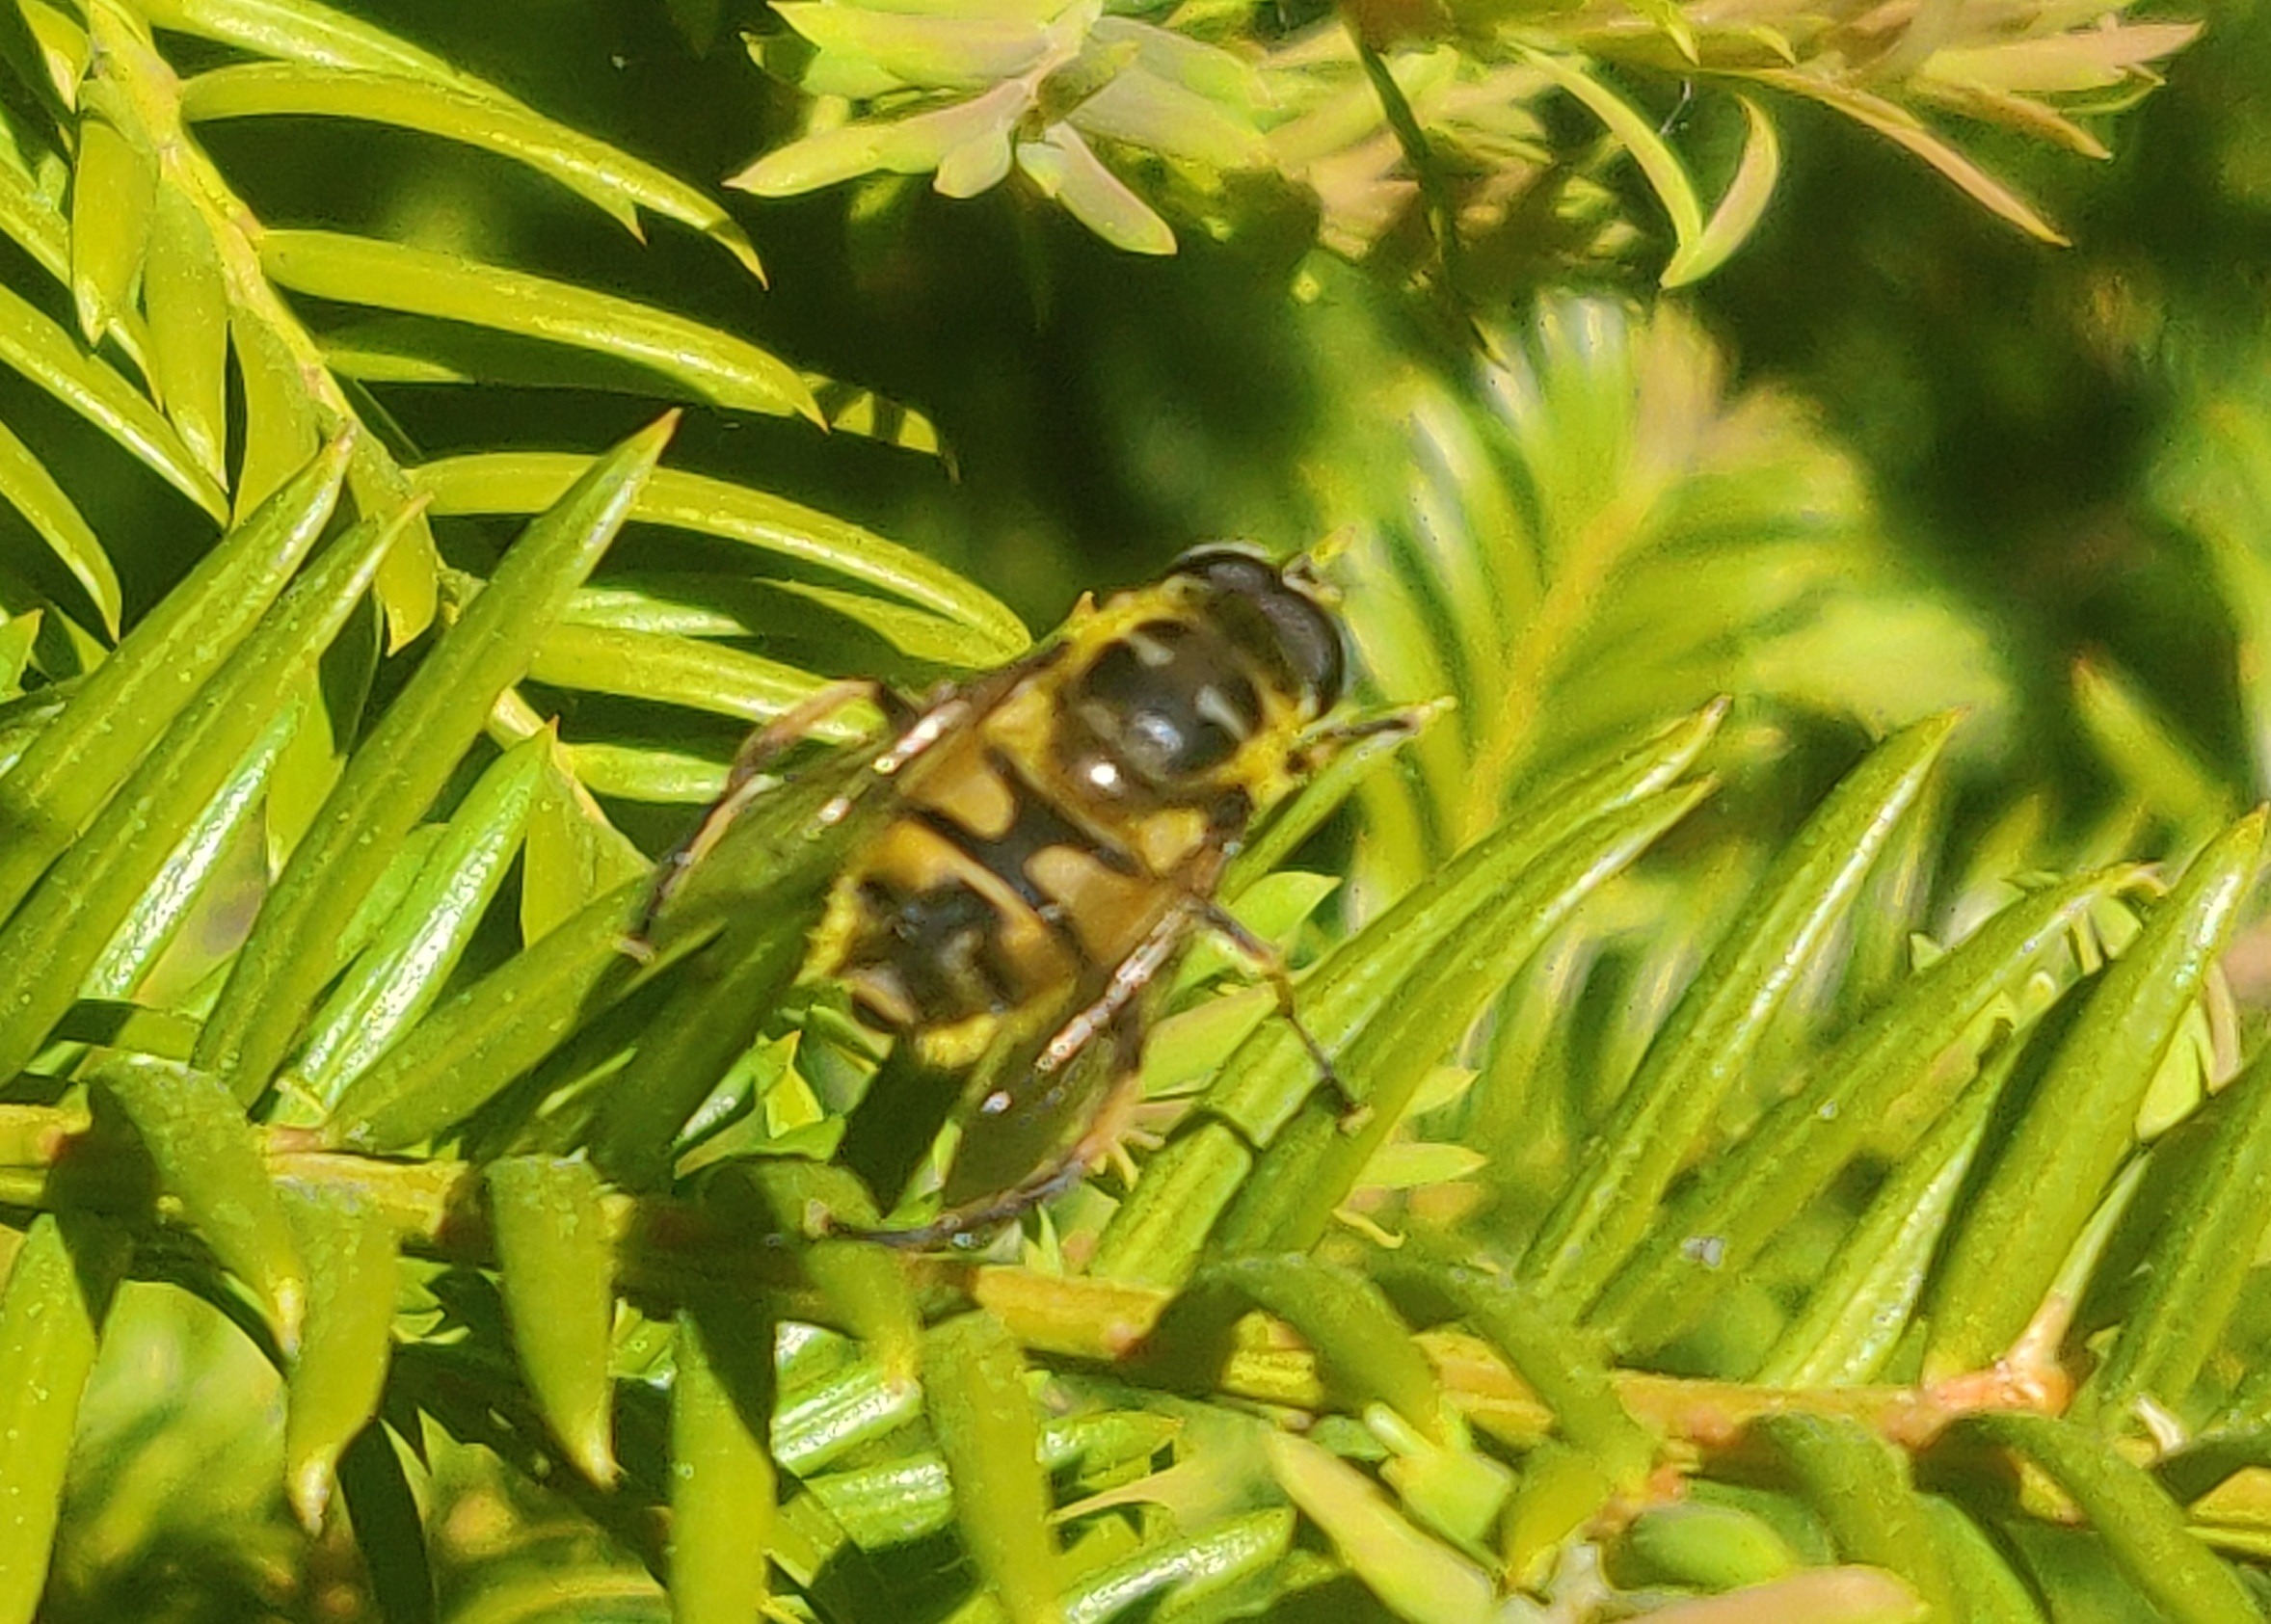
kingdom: Animalia
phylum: Arthropoda
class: Insecta
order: Diptera
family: Syrphidae
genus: Myathropa
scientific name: Myathropa florea
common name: Dødningehoved-svirreflue
